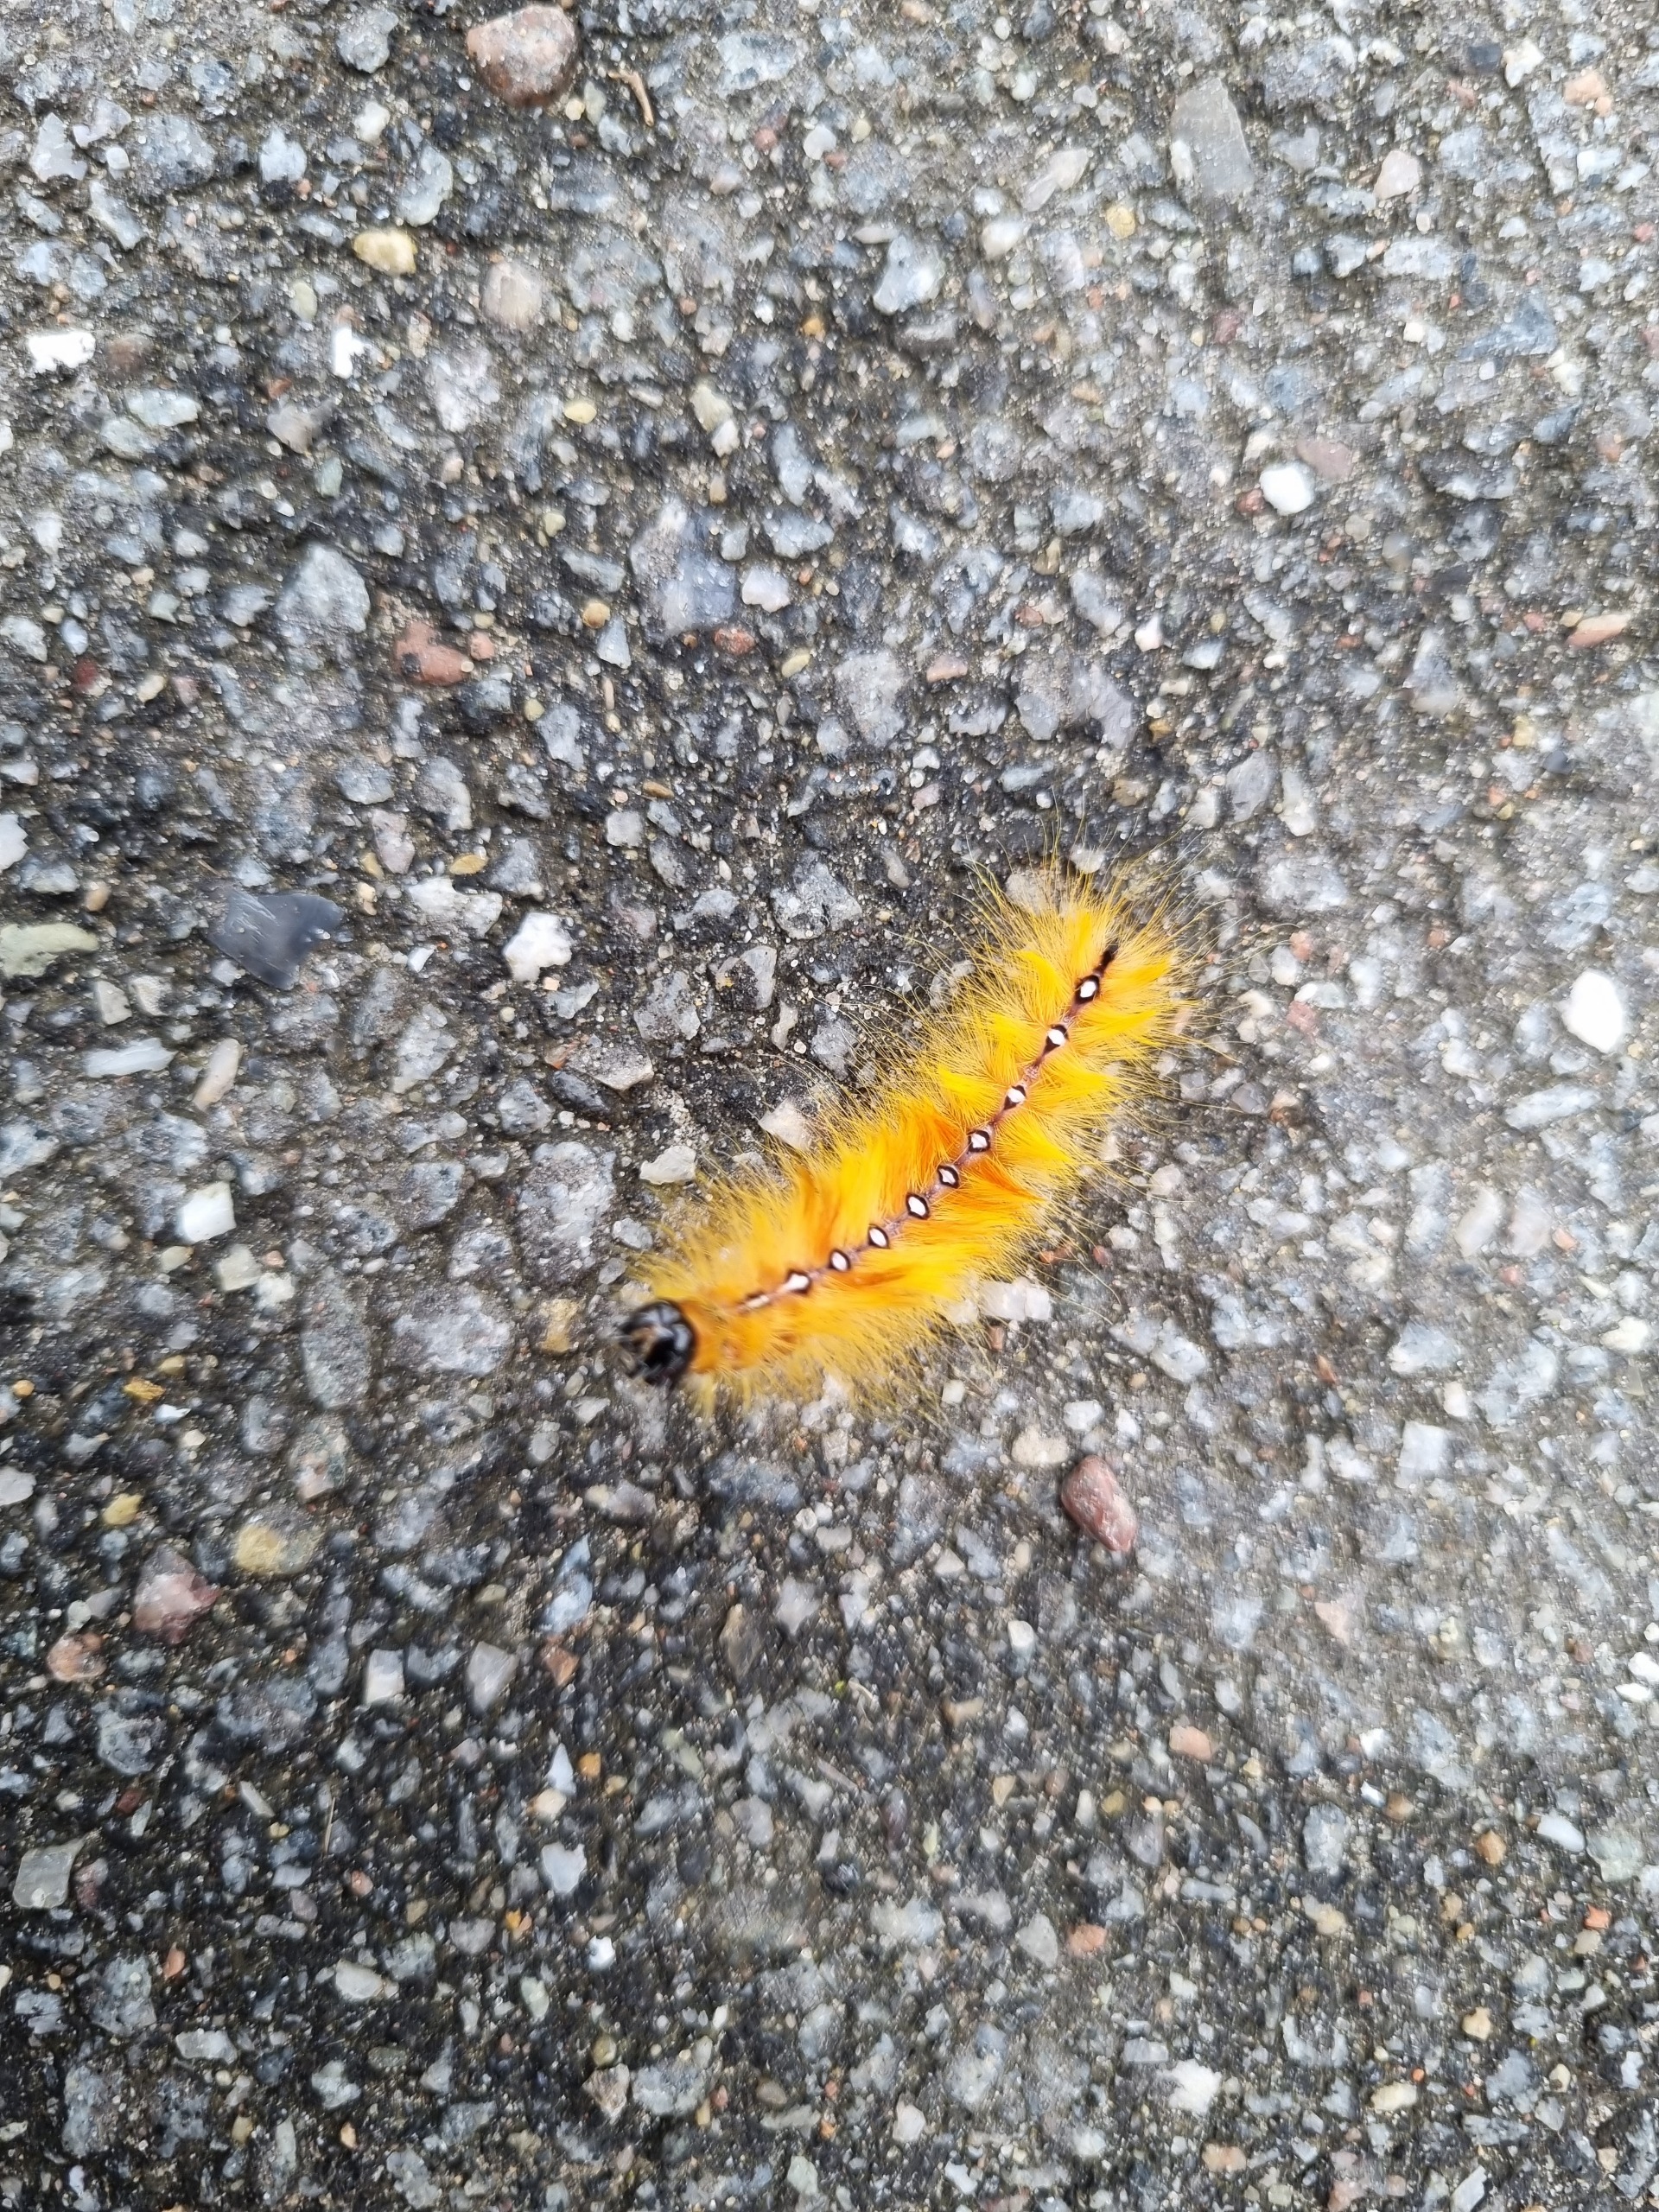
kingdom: Animalia
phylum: Arthropoda
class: Insecta
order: Lepidoptera
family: Noctuidae
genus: Acronicta
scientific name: Acronicta aceris
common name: Ahornugle
